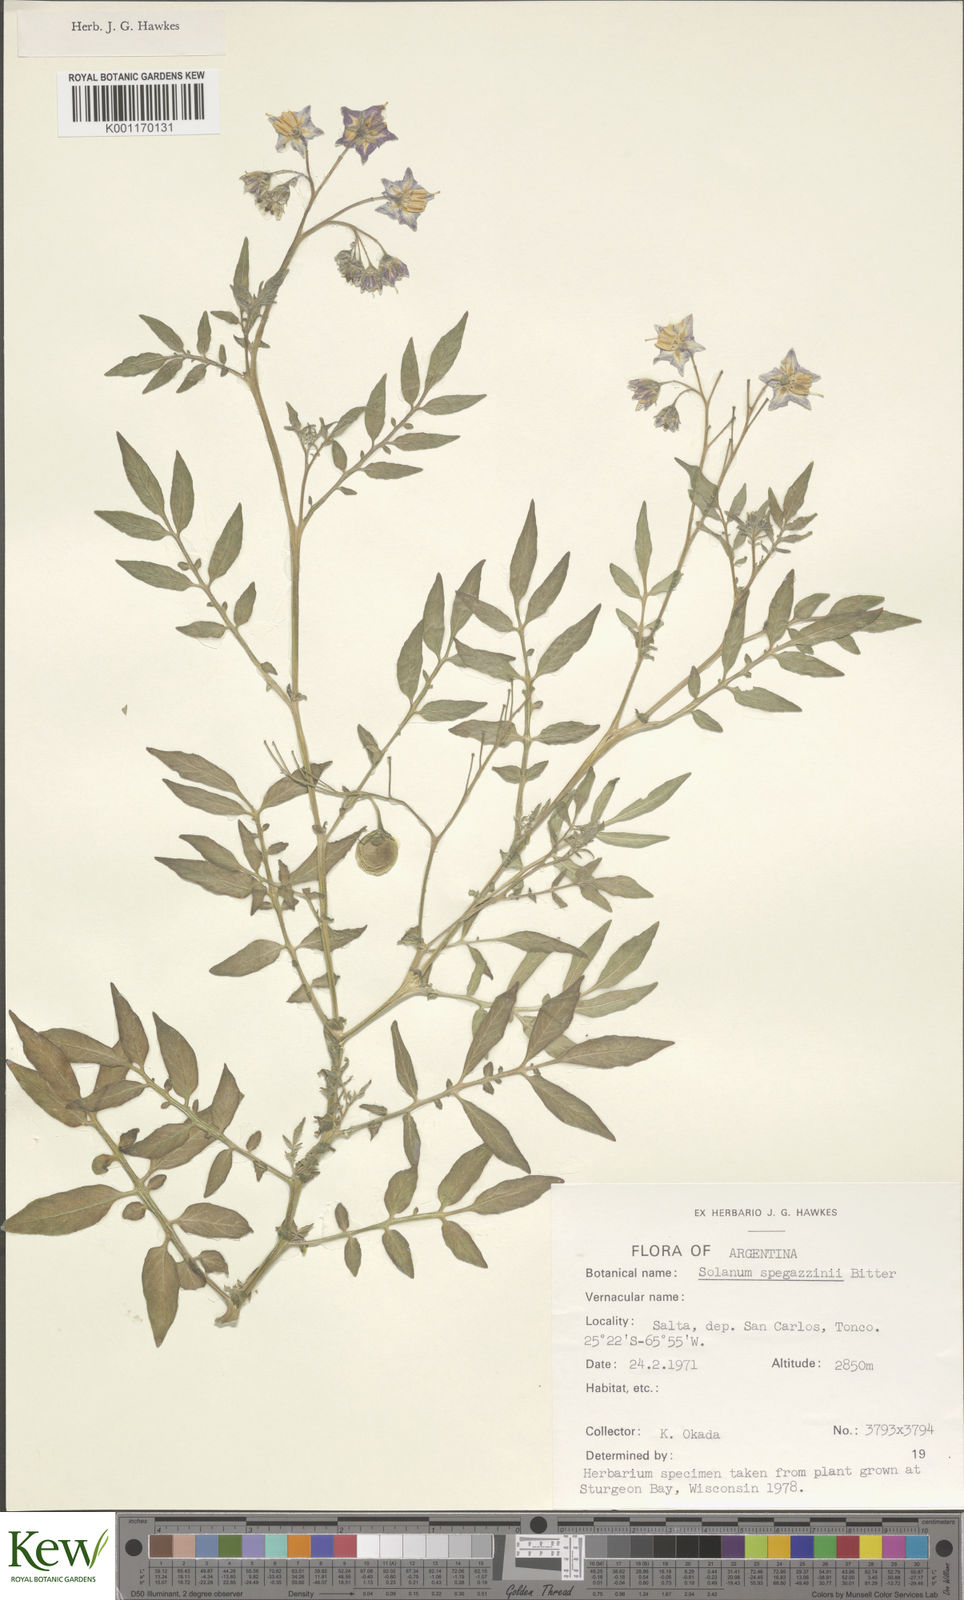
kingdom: Plantae
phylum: Tracheophyta
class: Magnoliopsida
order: Solanales
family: Solanaceae
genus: Solanum
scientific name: Solanum brevicaule
